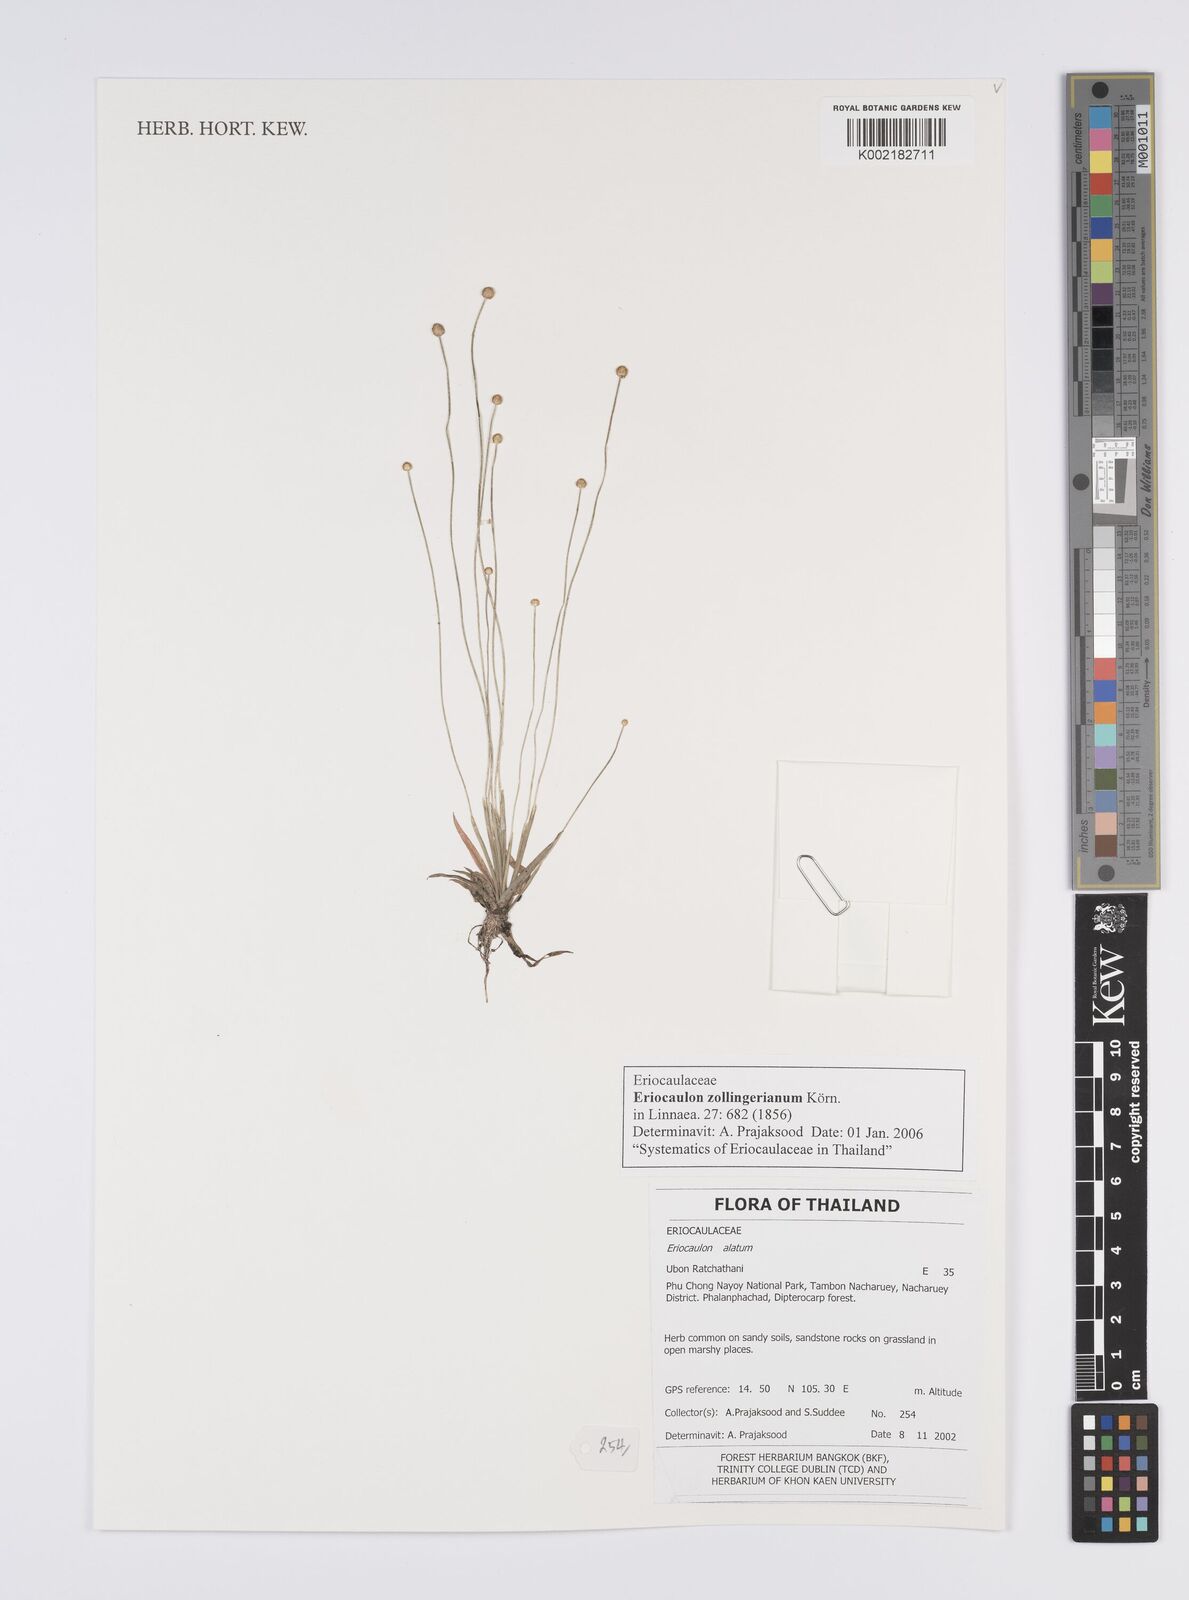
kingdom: Plantae
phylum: Tracheophyta
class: Liliopsida
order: Poales
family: Eriocaulaceae
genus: Eriocaulon
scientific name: Eriocaulon zollingerianum
